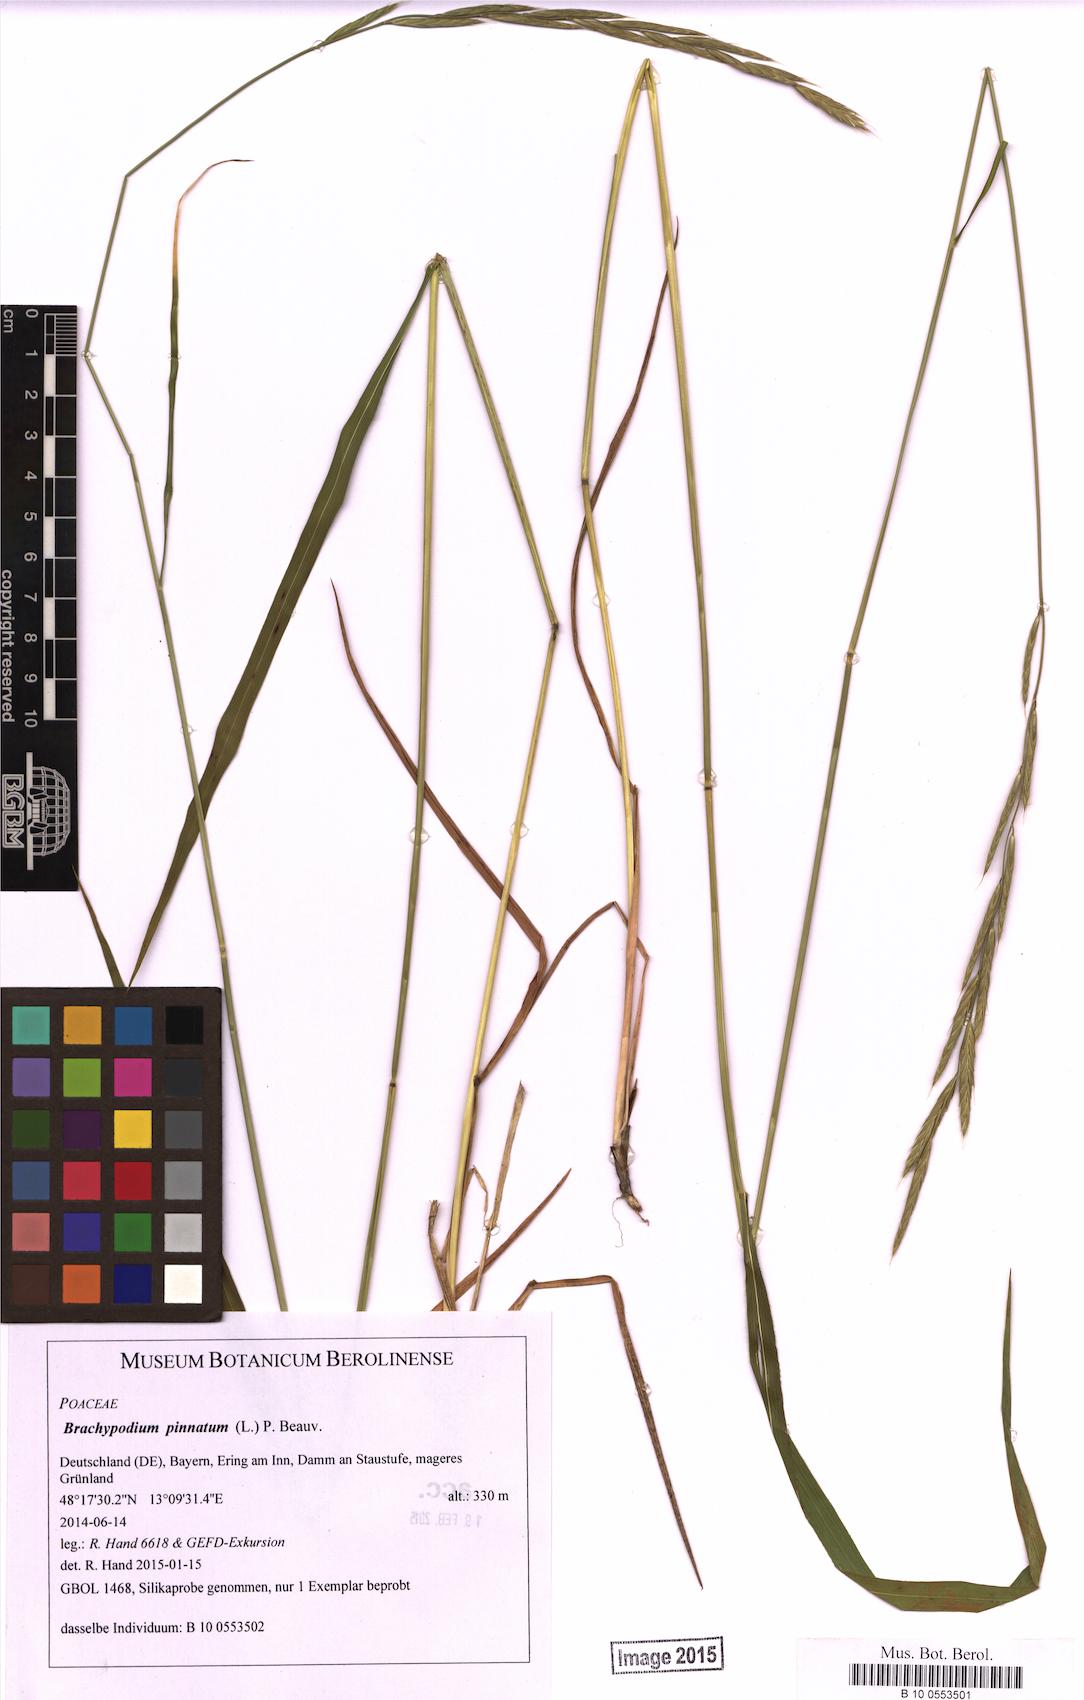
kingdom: Plantae
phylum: Tracheophyta
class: Liliopsida
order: Poales
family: Poaceae
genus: Brachypodium
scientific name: Brachypodium pinnatum
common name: Tor grass
